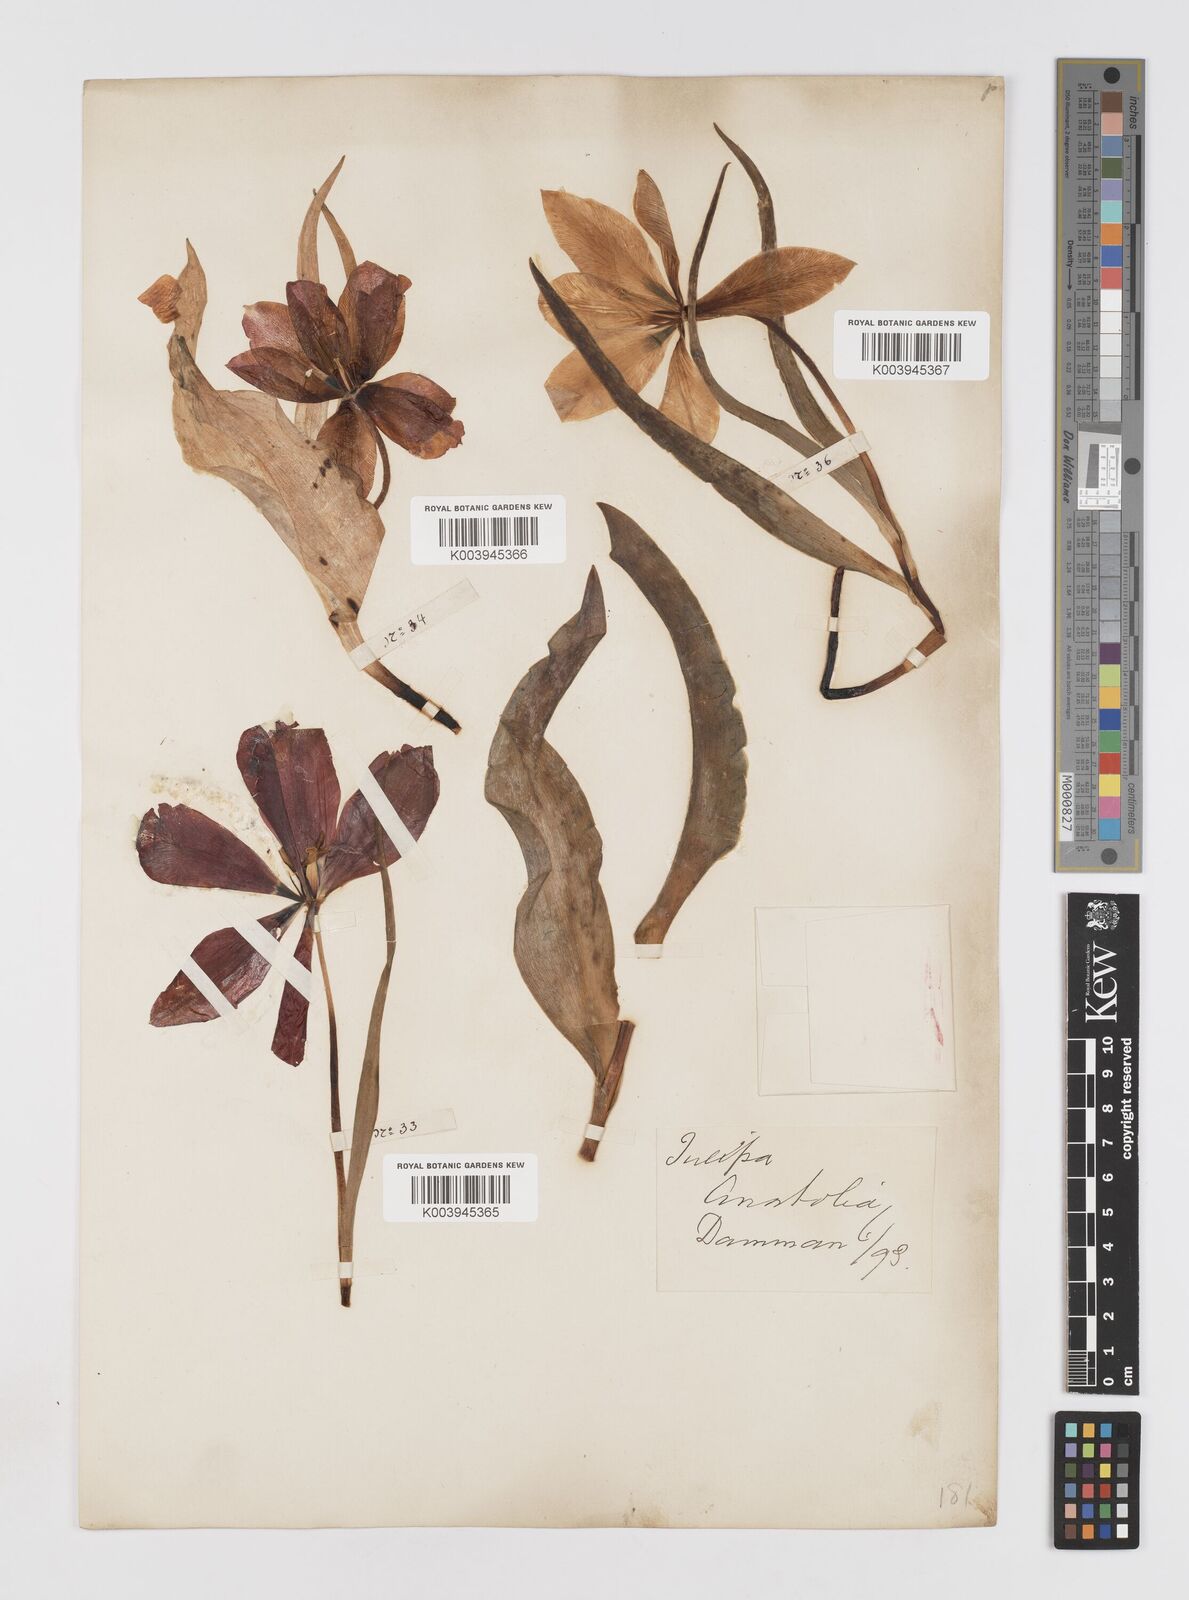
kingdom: Plantae
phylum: Tracheophyta
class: Liliopsida
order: Liliales
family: Liliaceae
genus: Tulipa
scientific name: Tulipa
